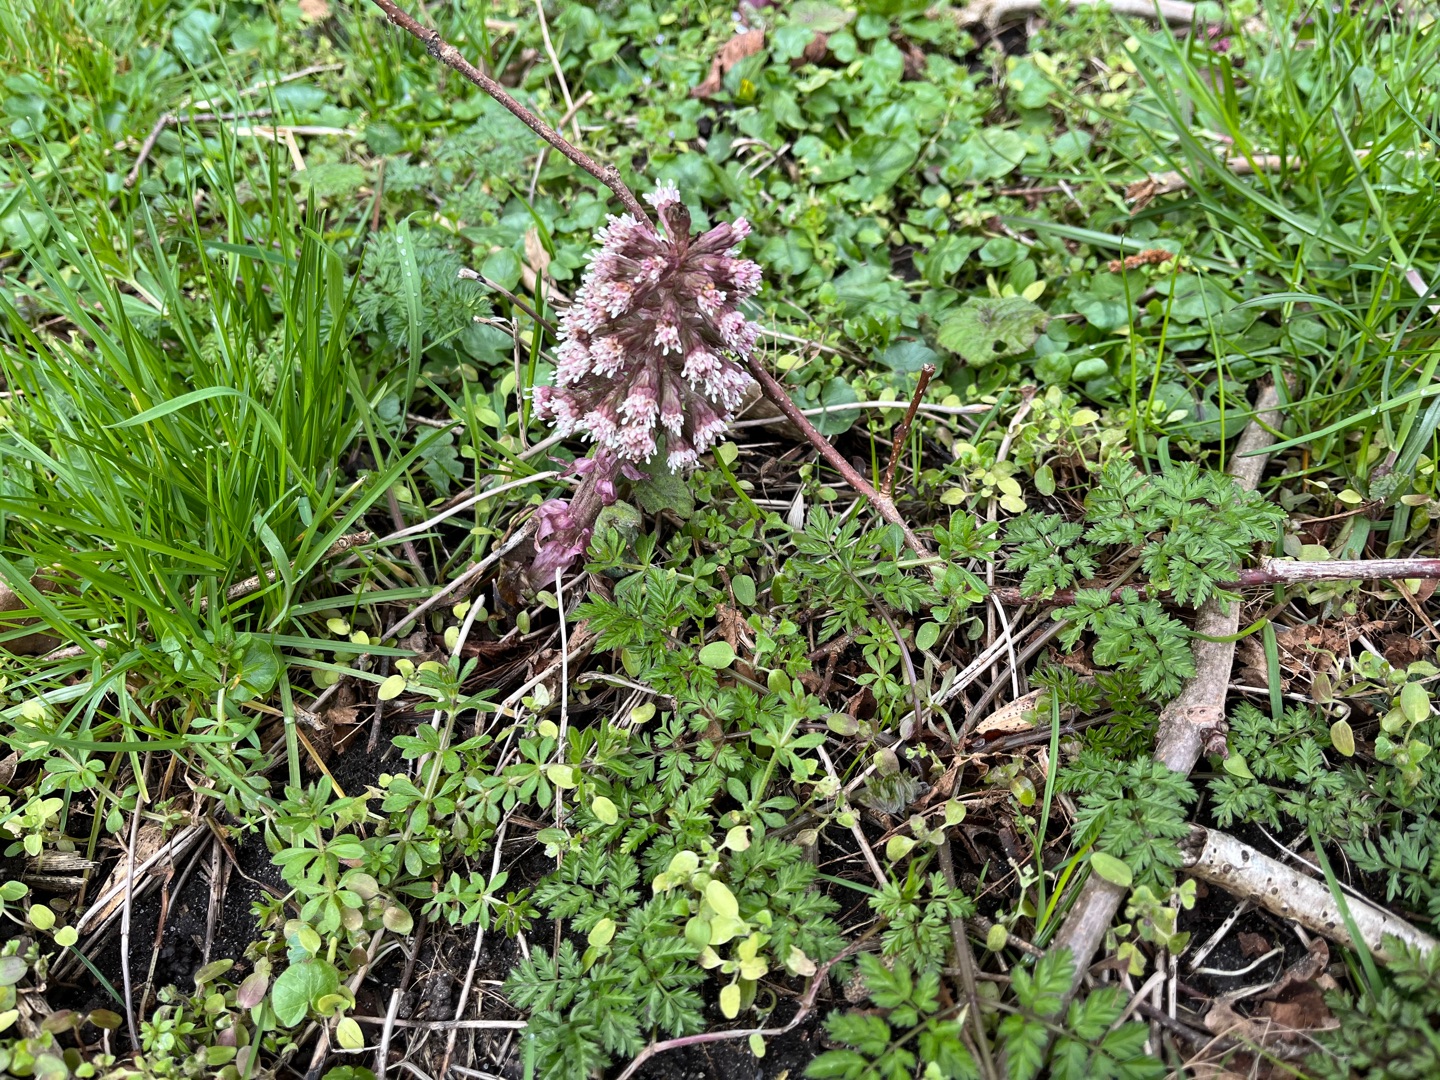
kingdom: Plantae
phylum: Tracheophyta
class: Magnoliopsida
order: Asterales
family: Asteraceae
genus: Petasites
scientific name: Petasites hybridus
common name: Rød hestehov
